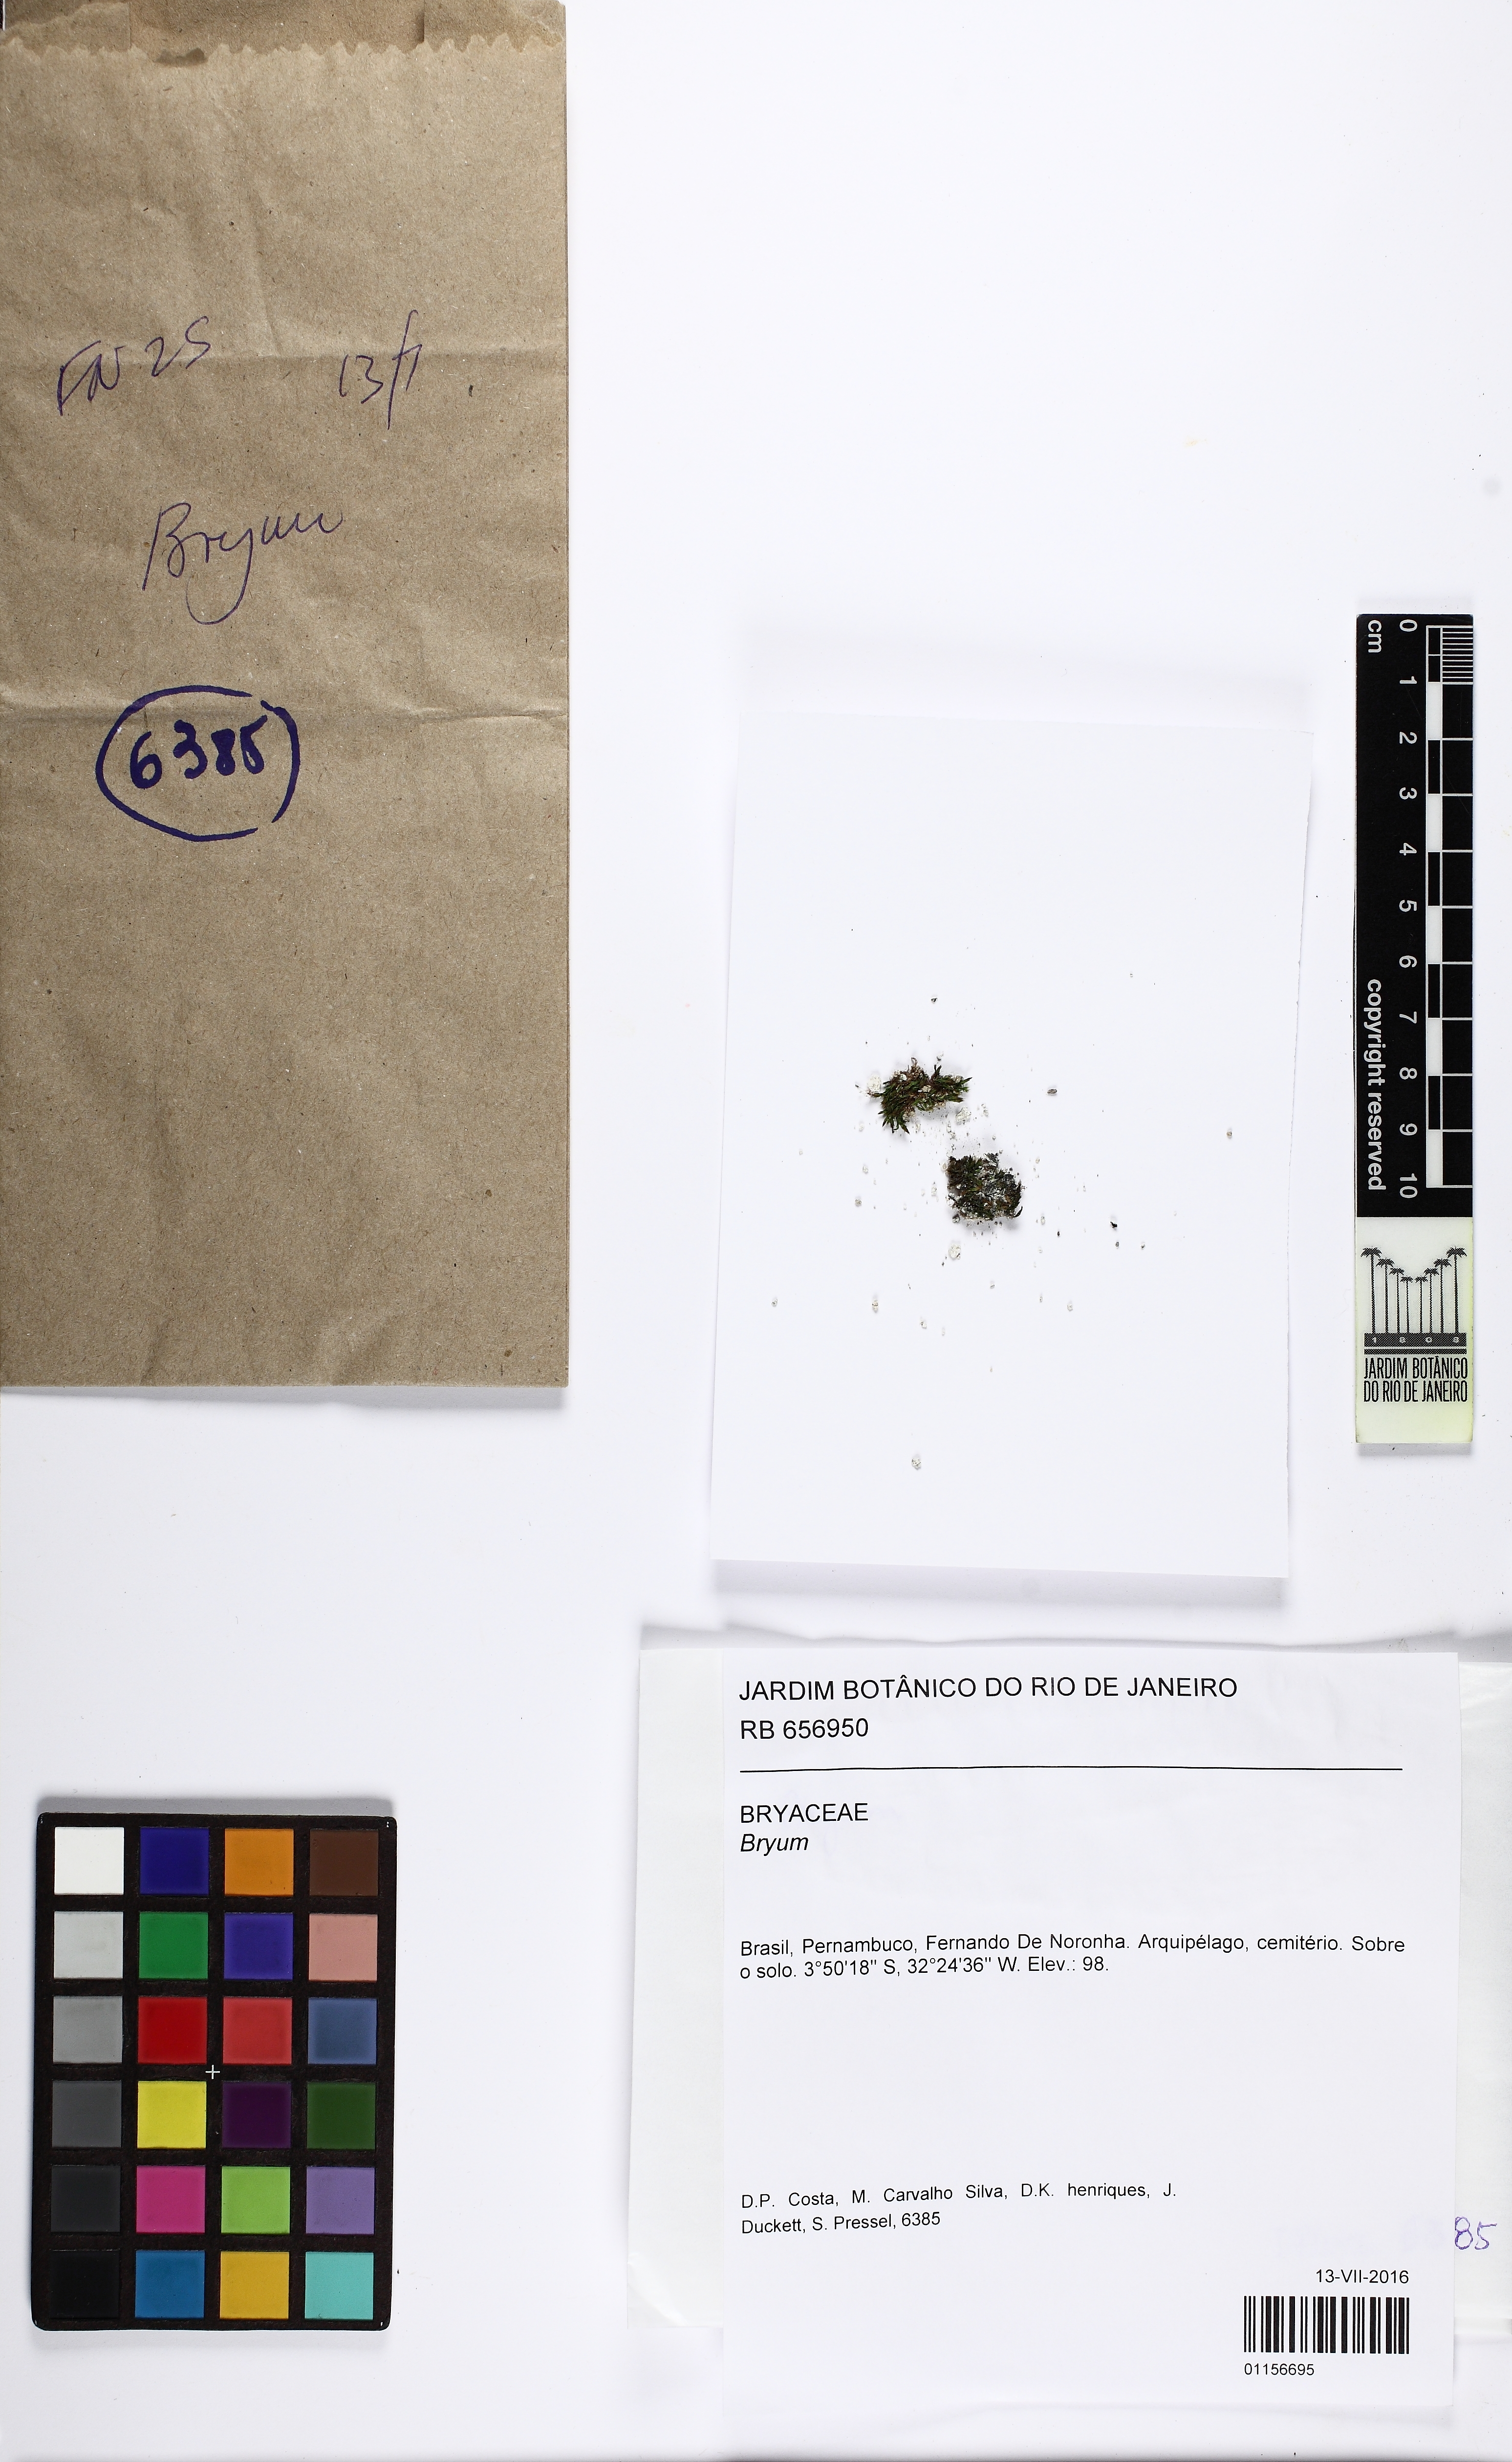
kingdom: Plantae
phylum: Bryophyta
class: Bryopsida
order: Bryales
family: Bryaceae
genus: Bryum
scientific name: Bryum
